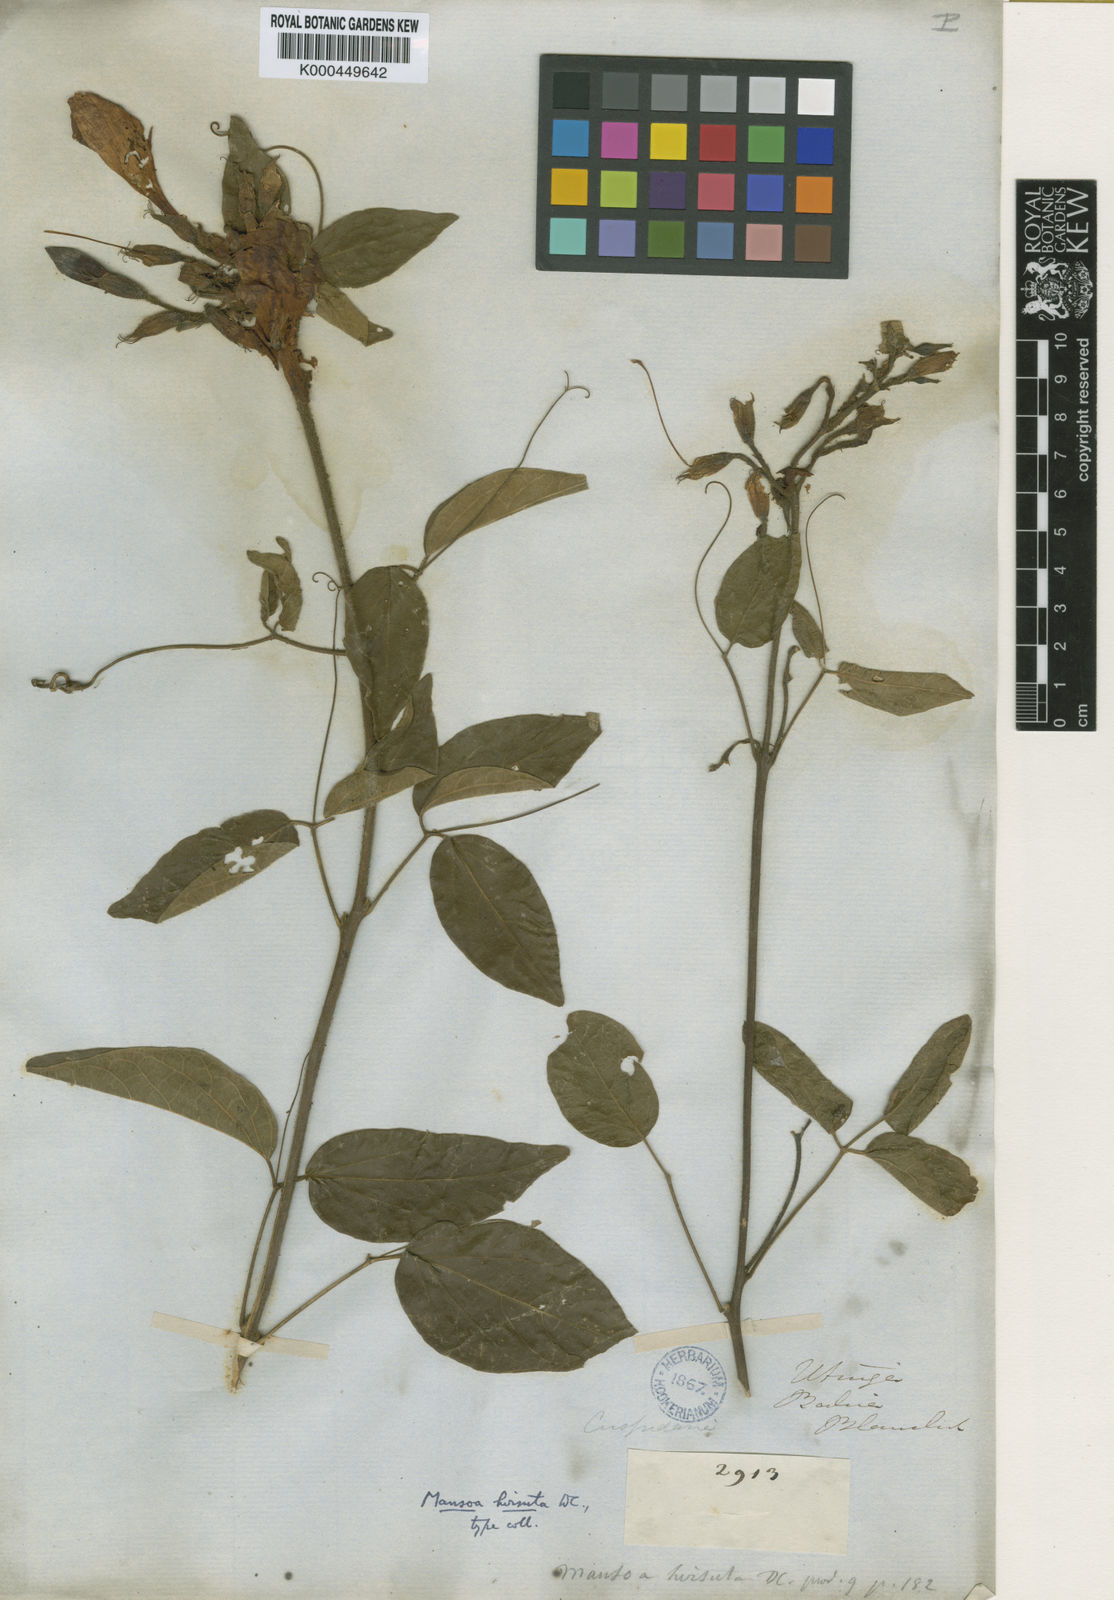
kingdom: Plantae
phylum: Tracheophyta
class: Magnoliopsida
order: Lamiales
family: Bignoniaceae
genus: Mansoa
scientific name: Mansoa hirsuta
